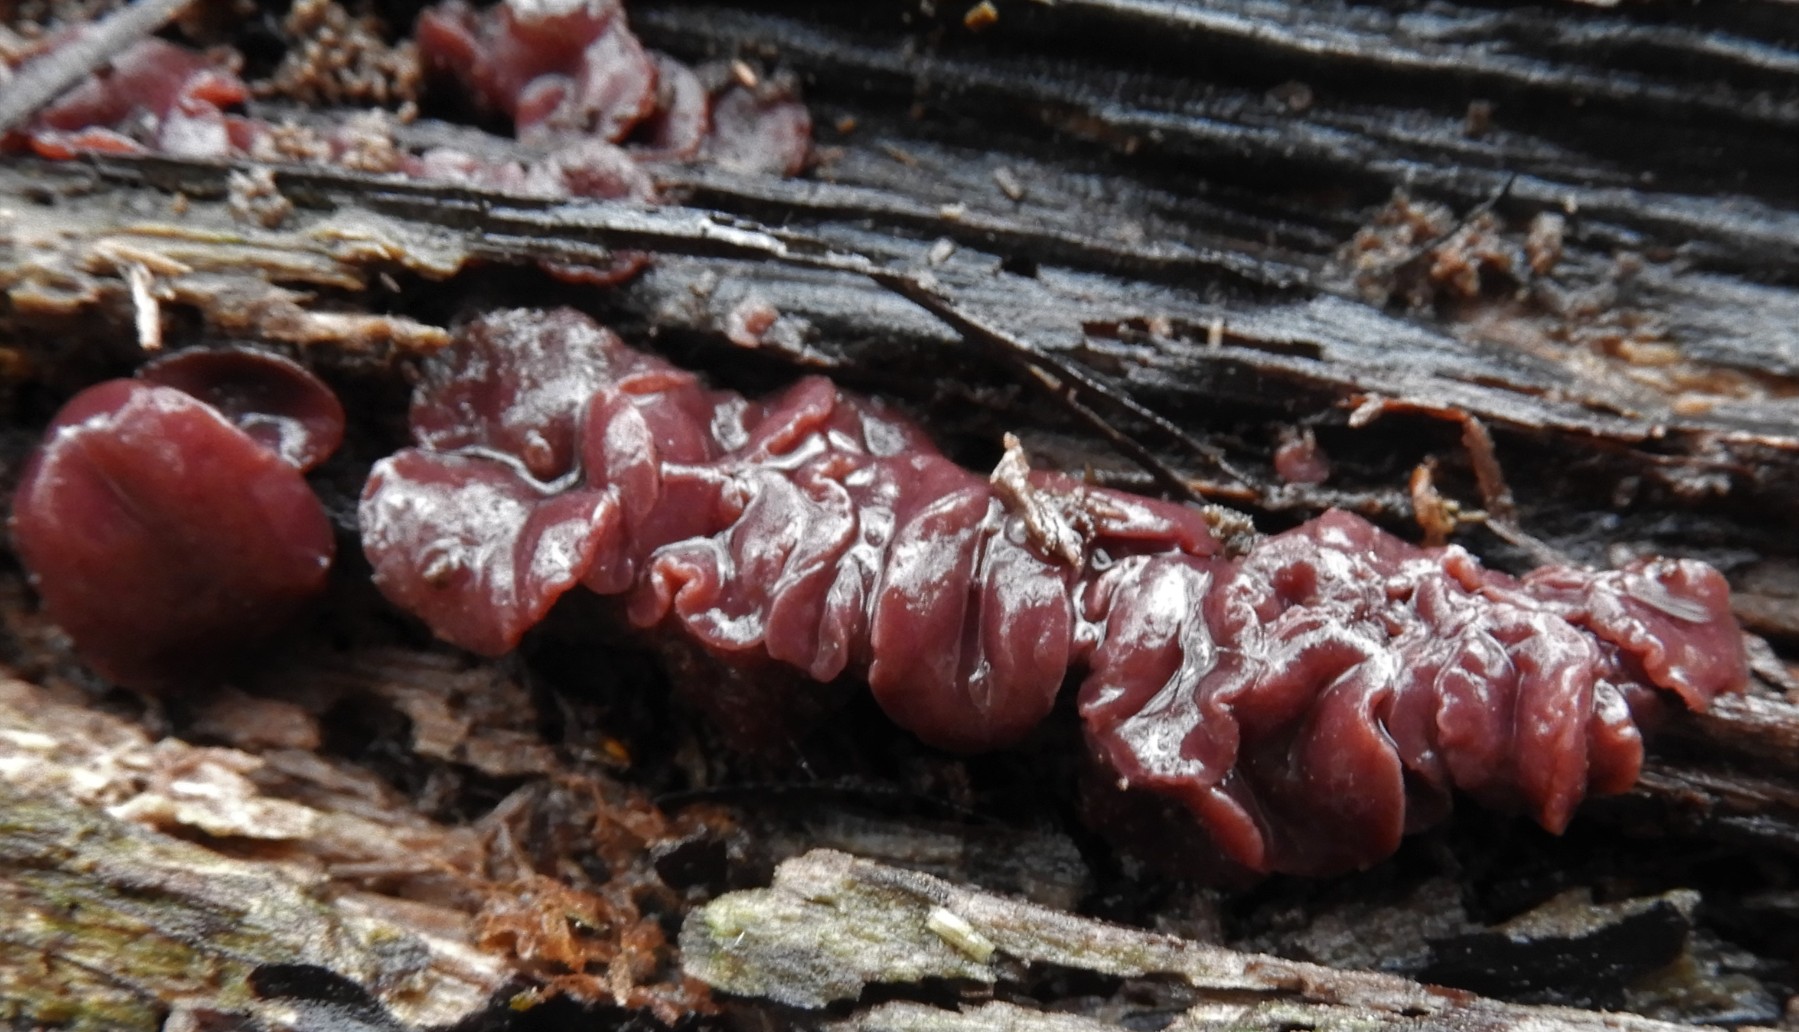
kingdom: Fungi
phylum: Ascomycota
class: Leotiomycetes
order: Helotiales
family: Gelatinodiscaceae
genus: Ascocoryne
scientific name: Ascocoryne cylichnium
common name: stor sejskive
